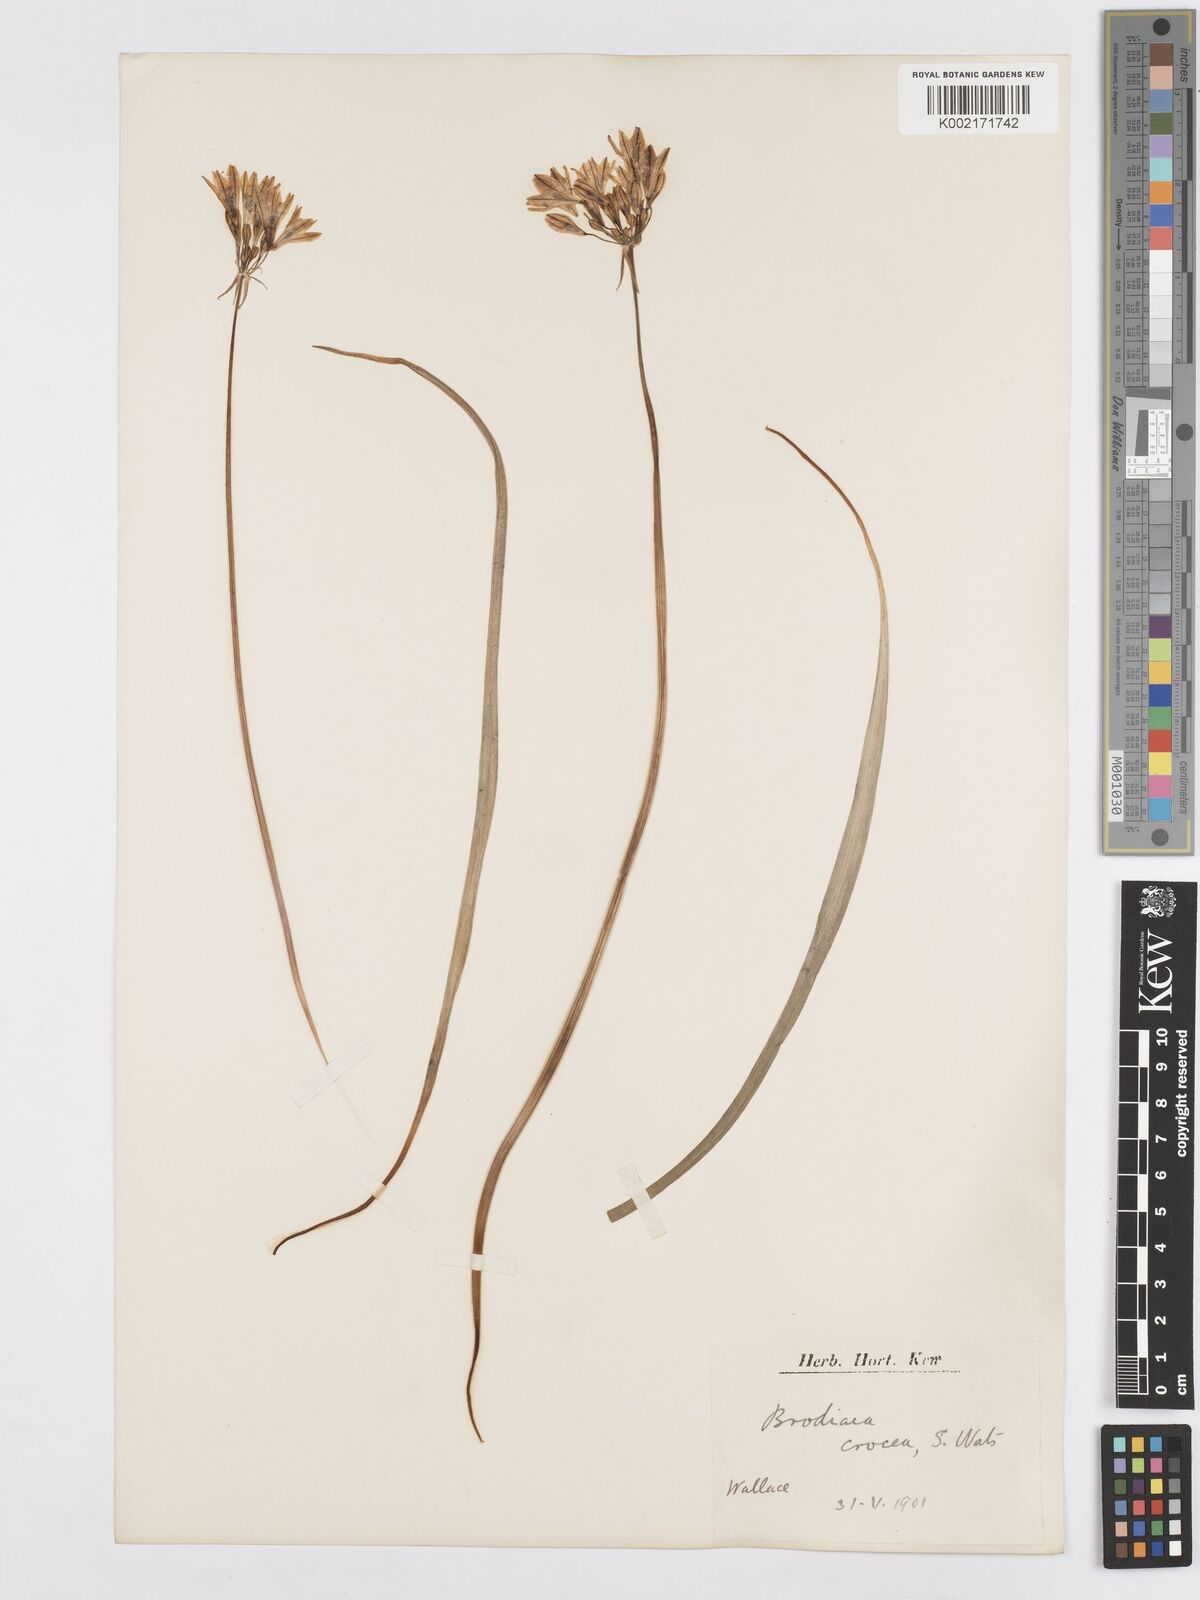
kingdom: Plantae
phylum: Tracheophyta
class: Liliopsida
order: Asparagales
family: Asparagaceae
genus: Triteleia
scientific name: Triteleia crocea
